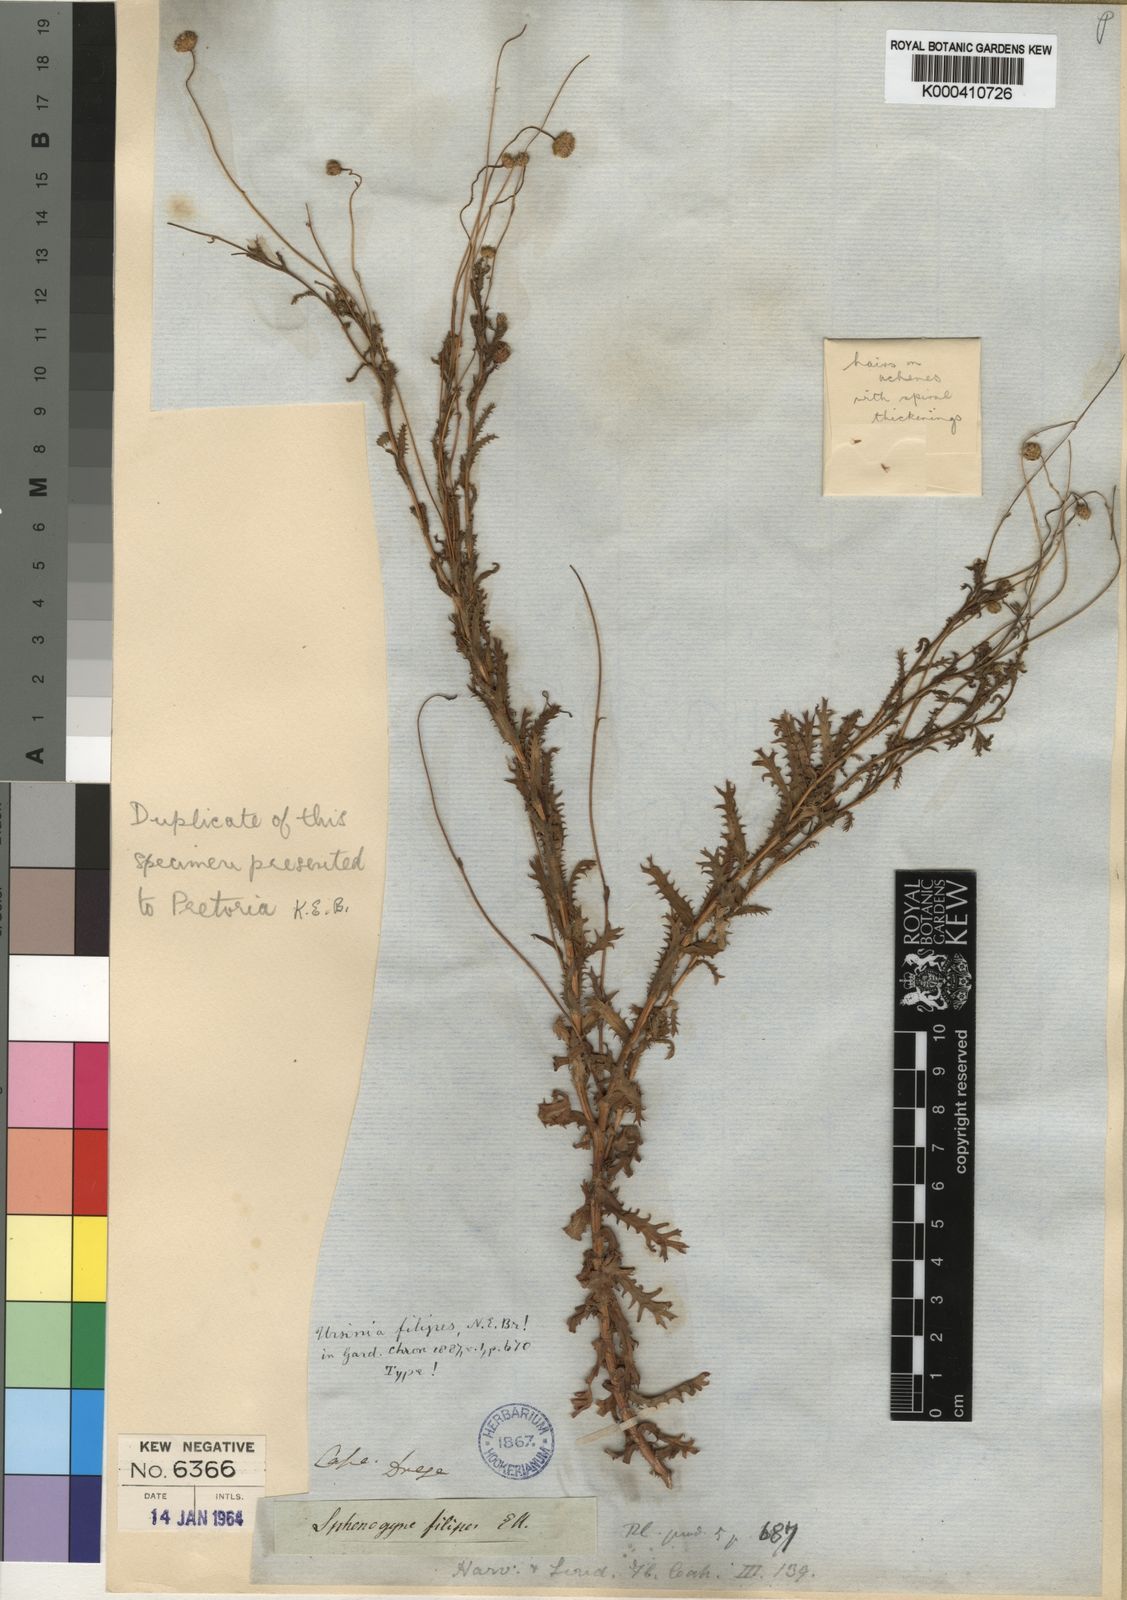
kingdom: Plantae
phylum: Tracheophyta
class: Magnoliopsida
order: Asterales
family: Asteraceae
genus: Ursinia
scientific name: Ursinia filipes
